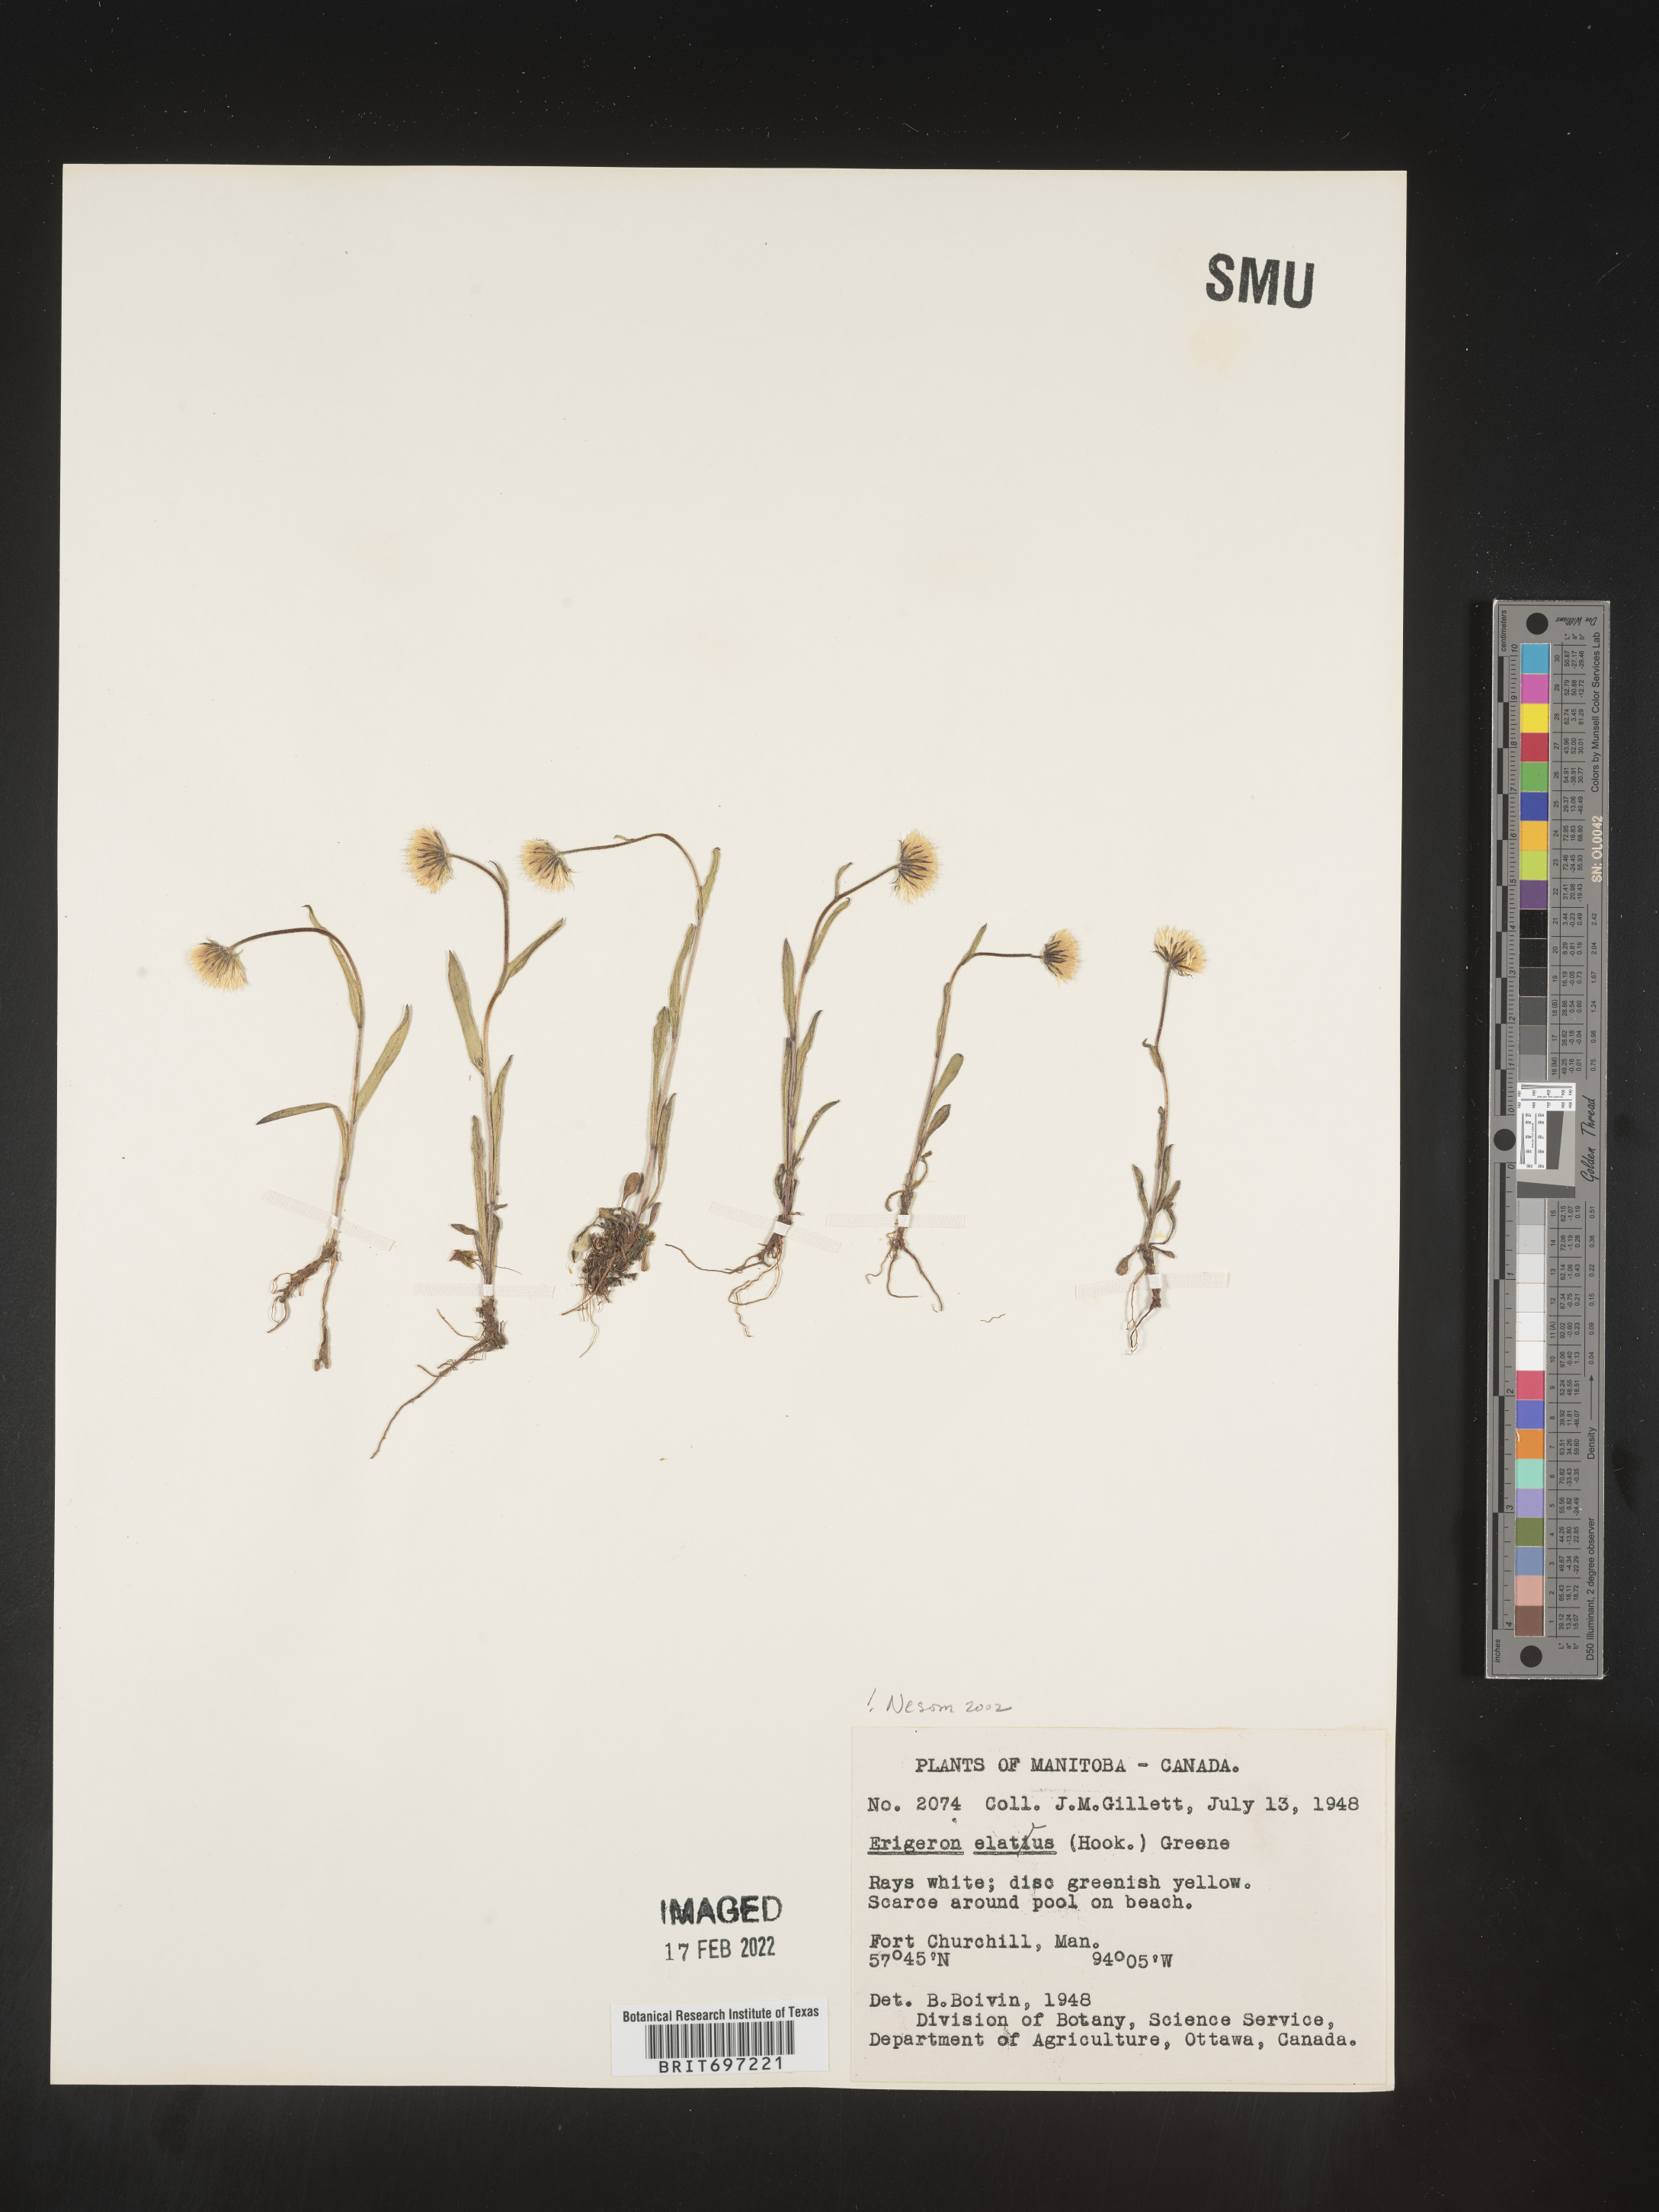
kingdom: Plantae
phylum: Tracheophyta
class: Magnoliopsida
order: Asterales
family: Asteraceae
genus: Erigeron
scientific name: Erigeron elatus
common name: Swamp fleabane
